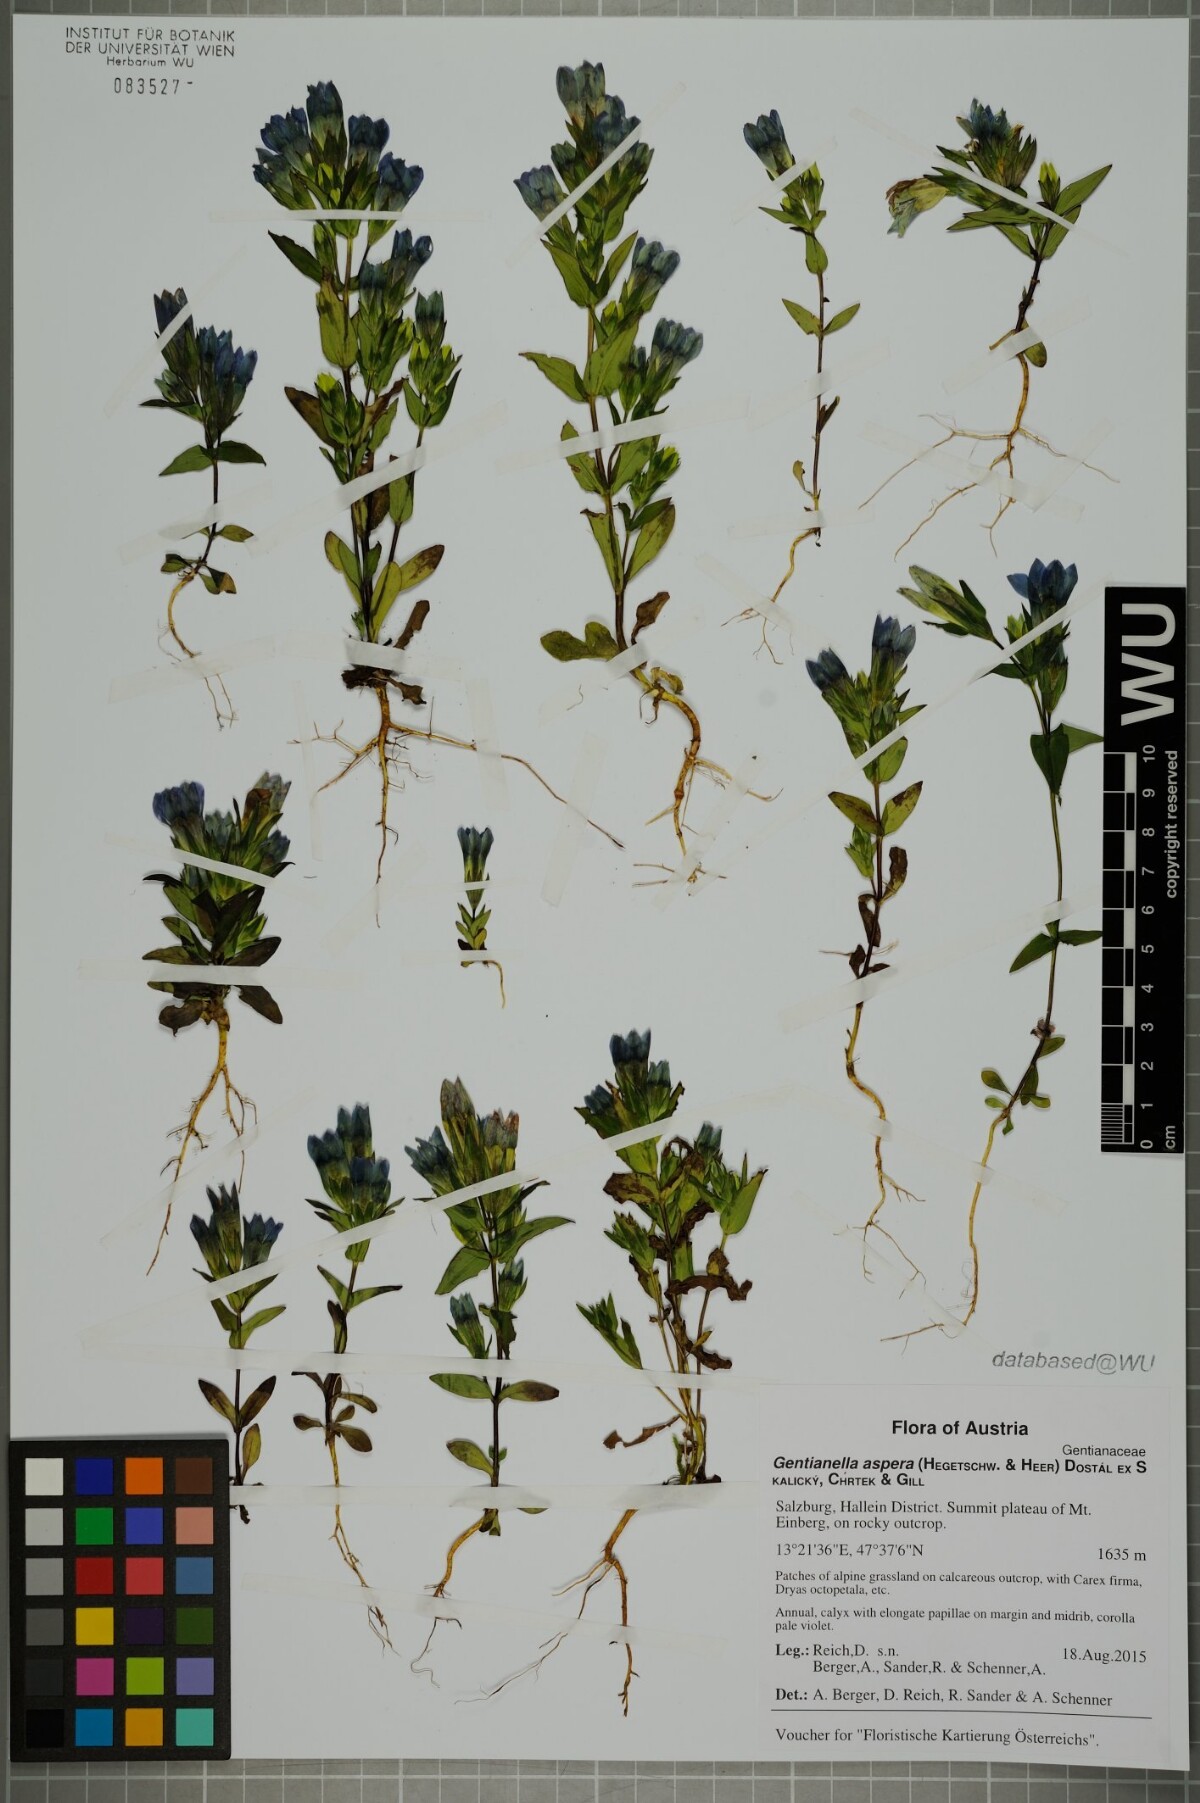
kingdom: Plantae
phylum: Tracheophyta
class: Magnoliopsida
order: Gentianales
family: Gentianaceae
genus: Gentianella
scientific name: Gentianella obtusifolia
